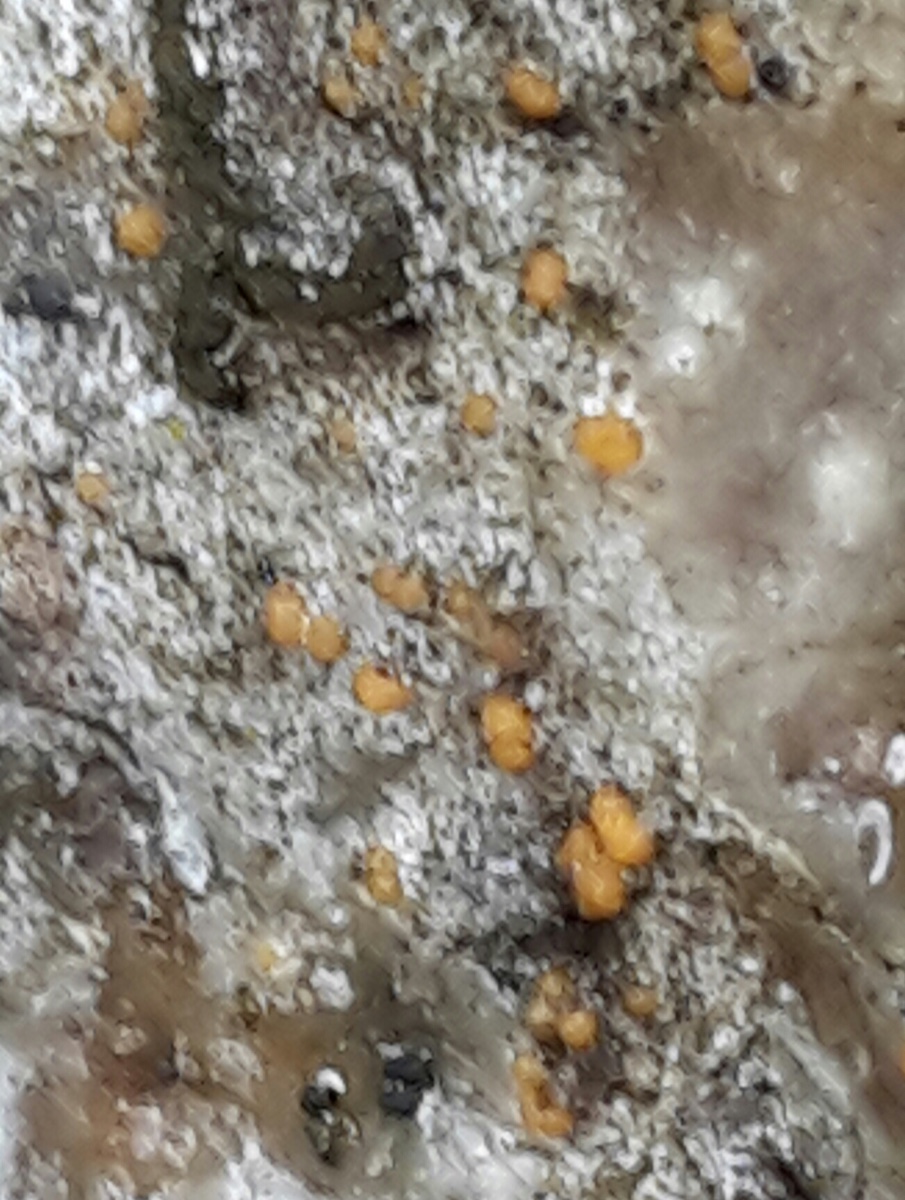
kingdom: Fungi
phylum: Ascomycota
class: Sareomycetes
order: Sareales
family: Sareaceae
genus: Sarea
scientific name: Sarea resinae
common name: orangegul harpiksskive
